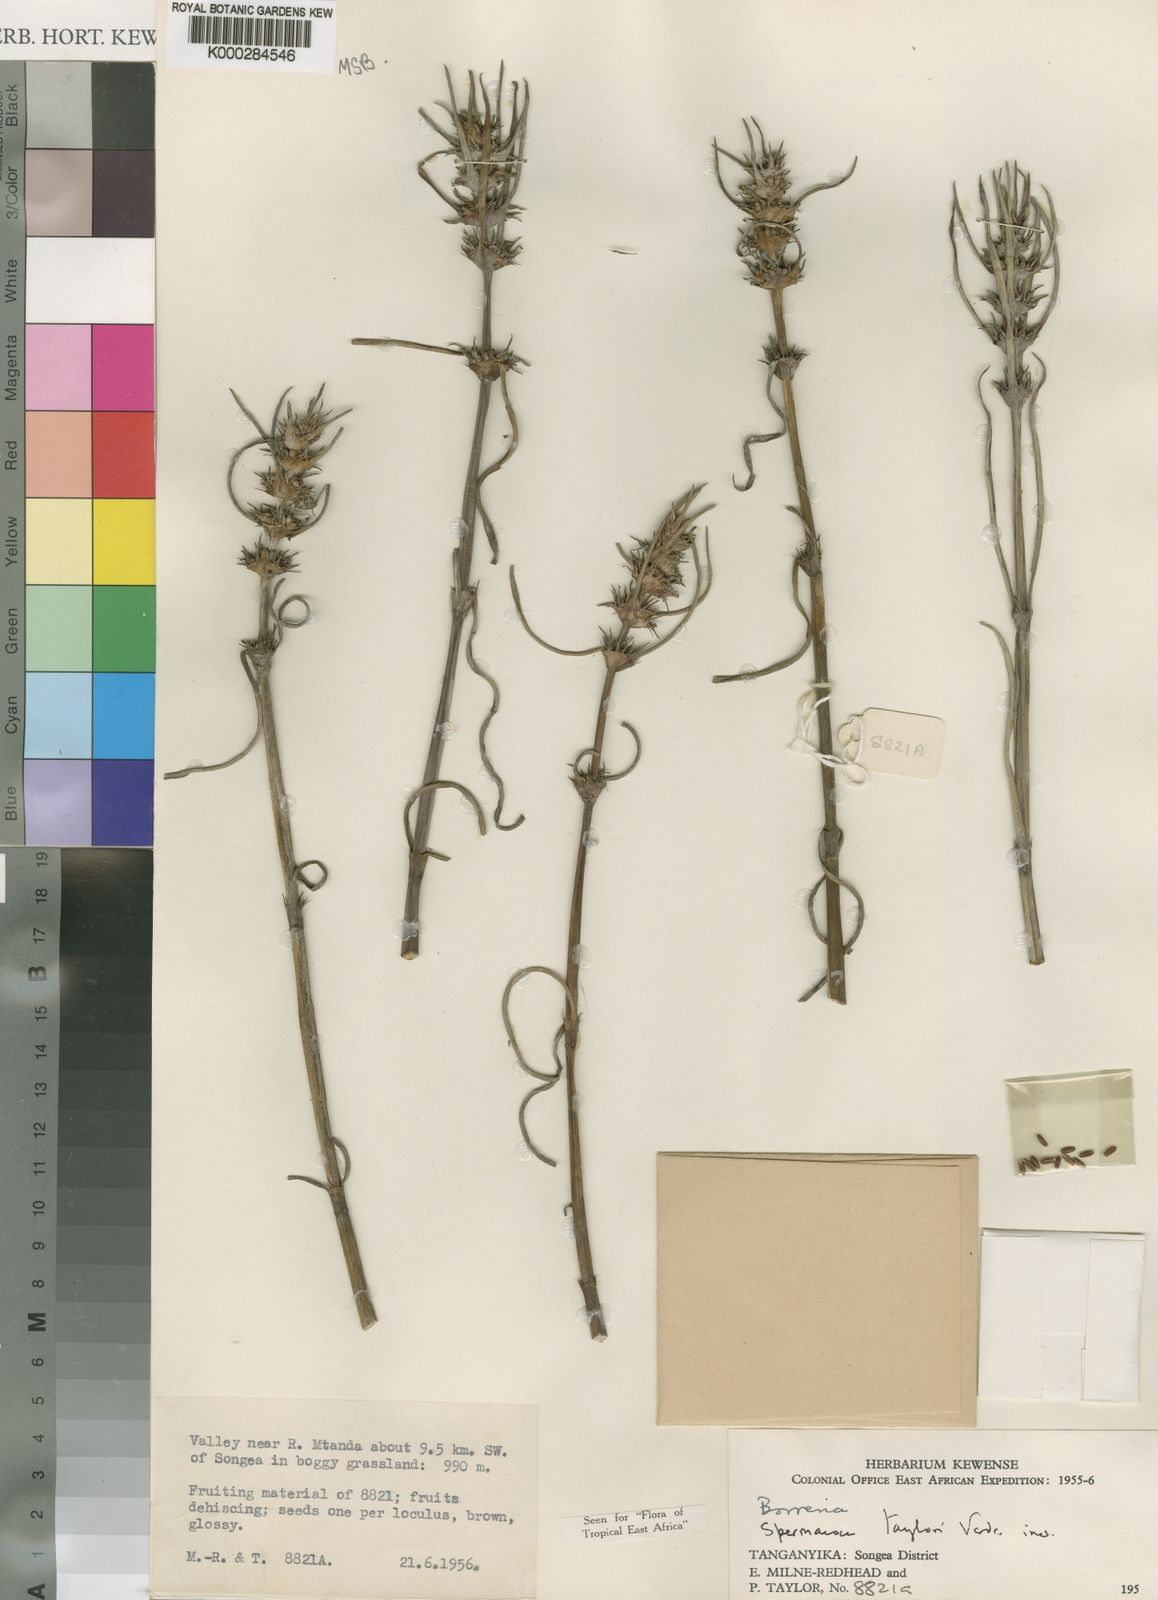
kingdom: Plantae
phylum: Tracheophyta
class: Magnoliopsida
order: Gentianales
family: Rubiaceae
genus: Spermacoce
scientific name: Spermacoce taylorii
